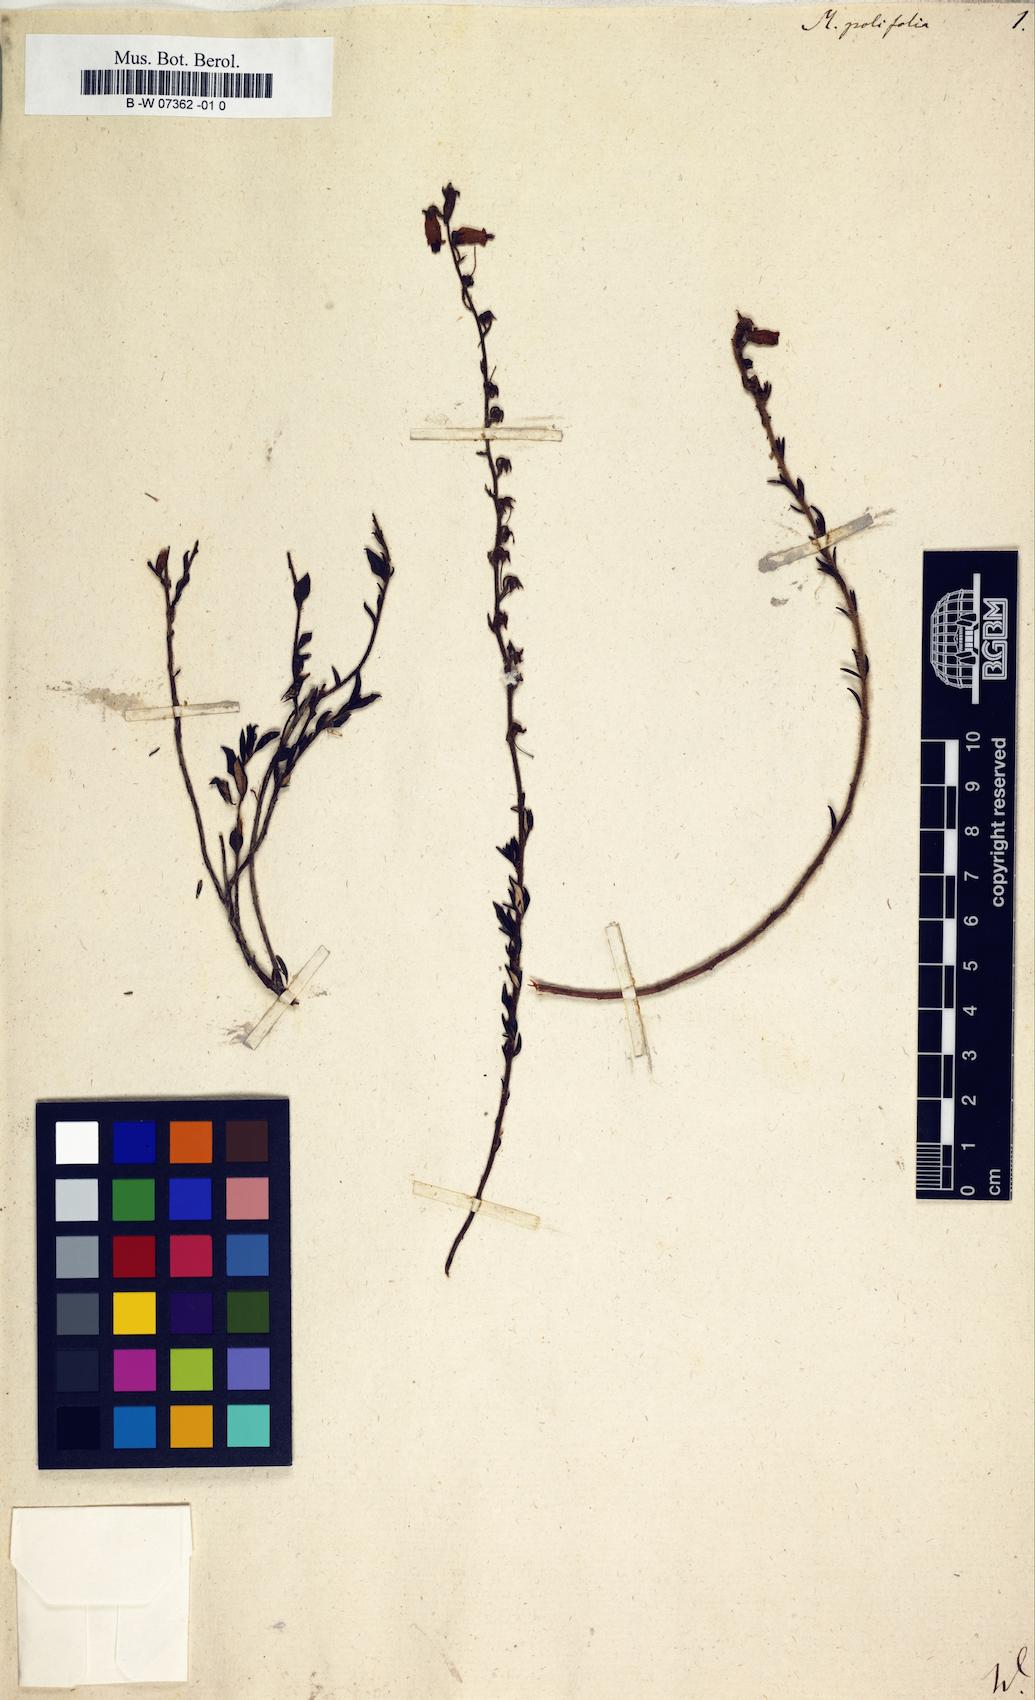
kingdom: Plantae
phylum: Tracheophyta
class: Magnoliopsida
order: Ericales
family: Ericaceae
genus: Daboecia
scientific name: Daboecia cantabrica
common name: St. dabeoc's-heath
